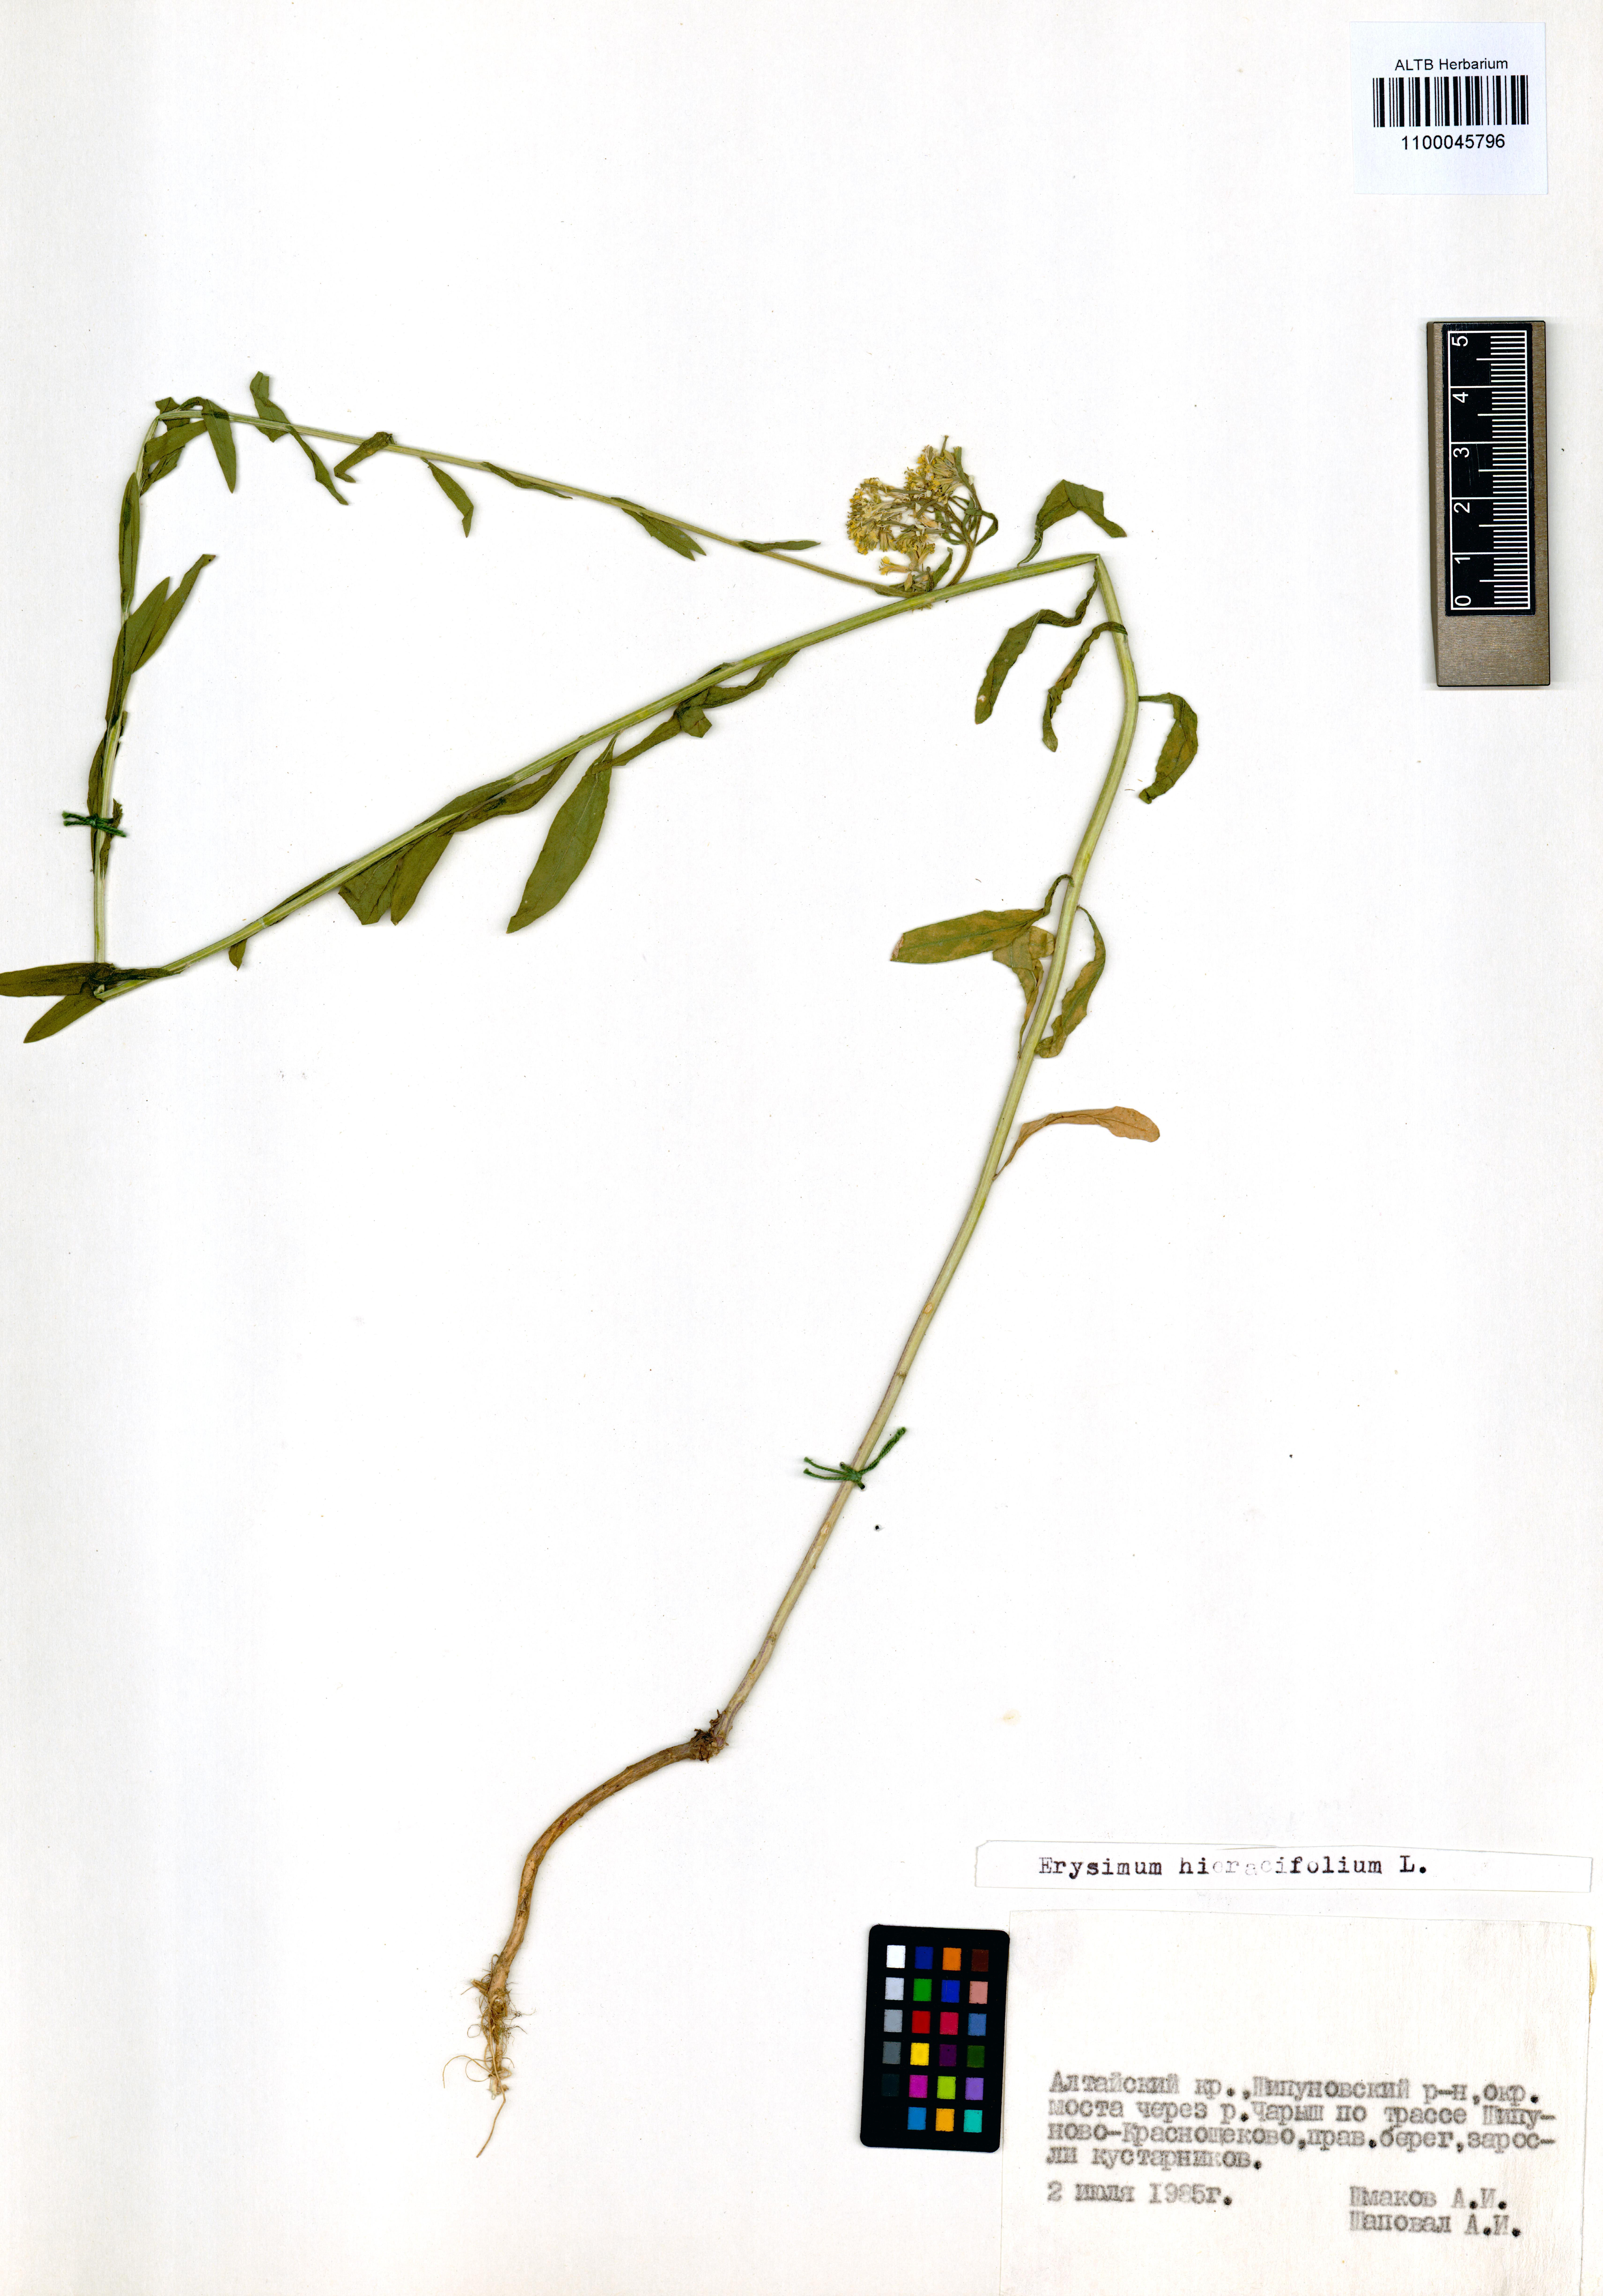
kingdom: Plantae
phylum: Tracheophyta
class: Magnoliopsida
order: Brassicales
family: Brassicaceae
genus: Erysimum
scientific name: Erysimum hieraciifolium
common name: European wallflower
